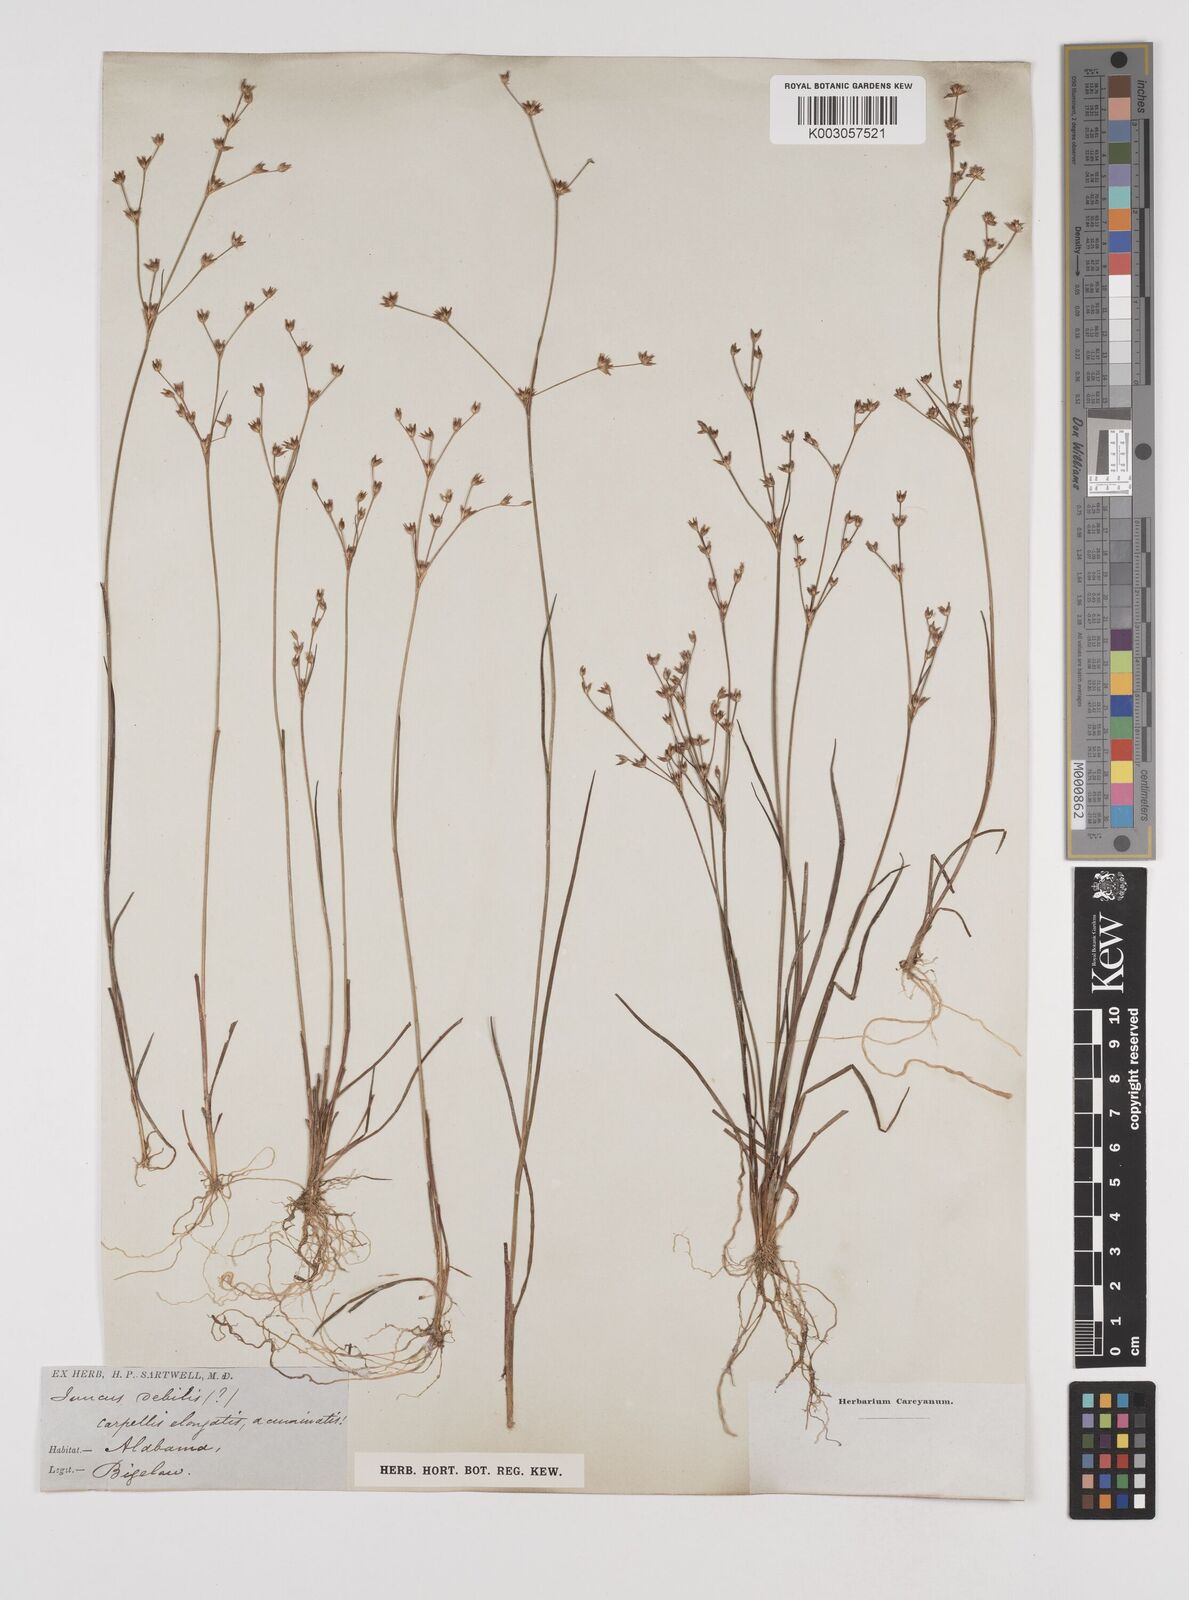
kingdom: Plantae
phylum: Tracheophyta
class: Liliopsida
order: Poales
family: Juncaceae
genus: Juncus
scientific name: Juncus debilis
